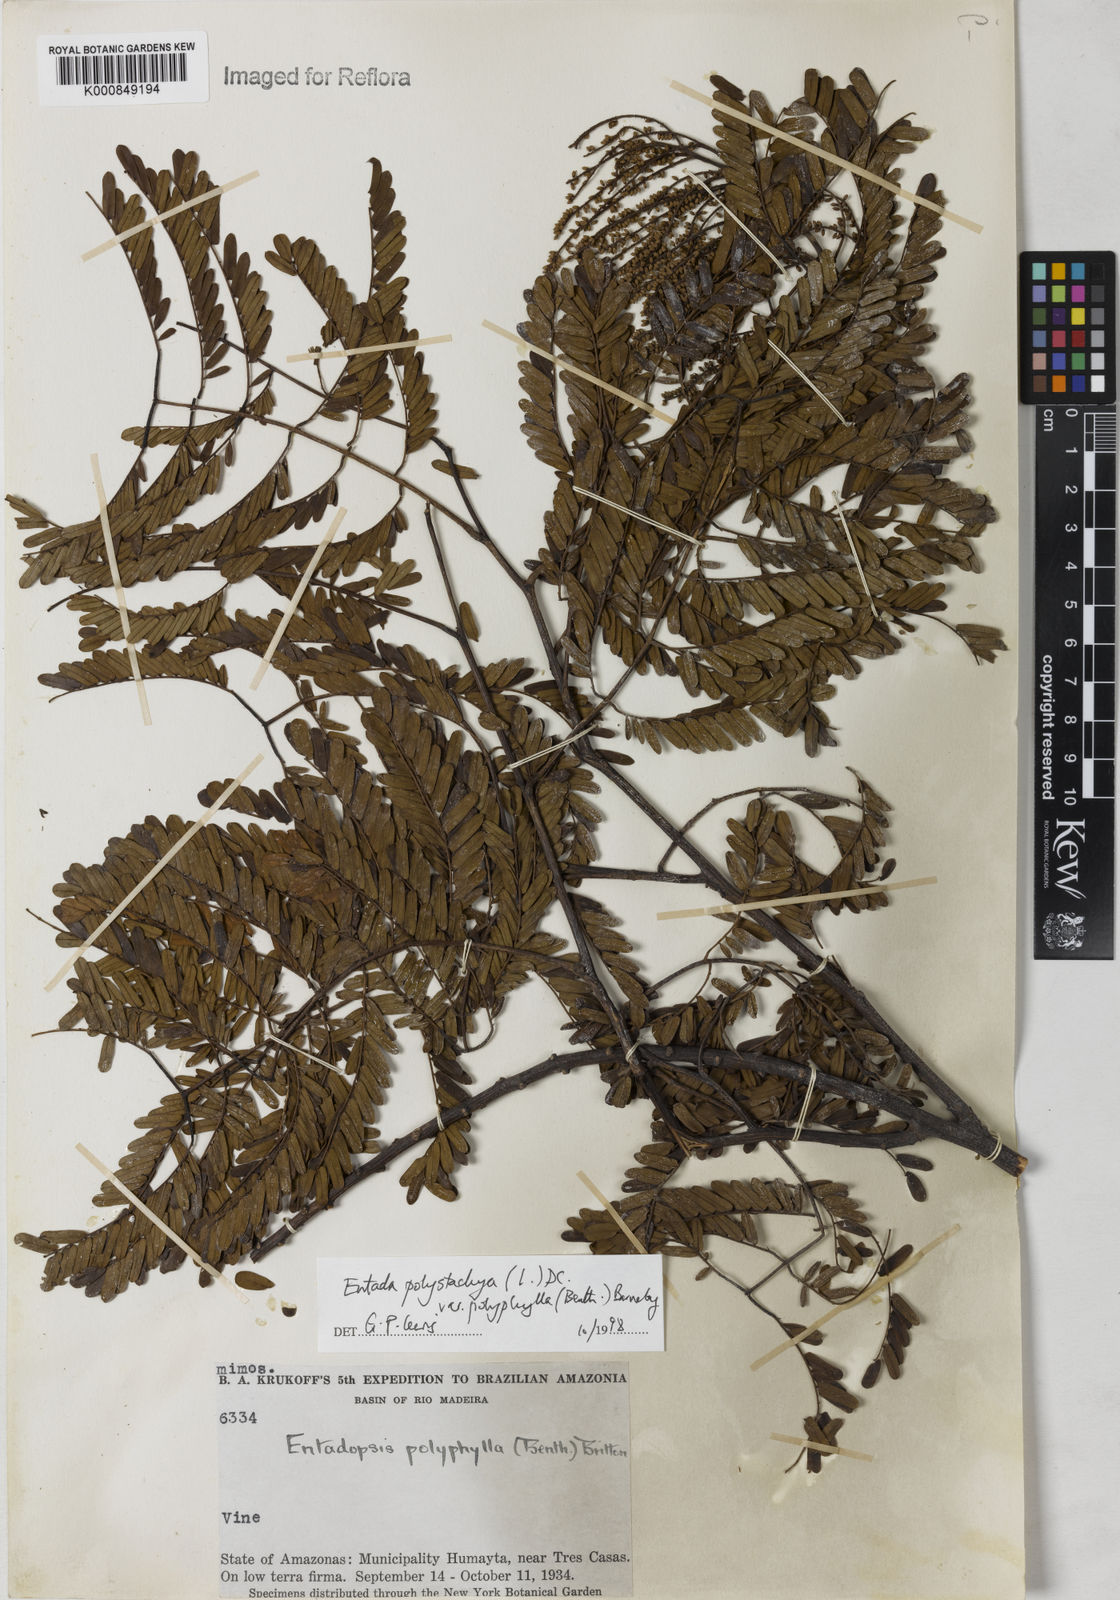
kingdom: Plantae
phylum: Tracheophyta
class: Magnoliopsida
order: Fabales
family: Fabaceae
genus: Entada
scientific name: Entada polyphylla
